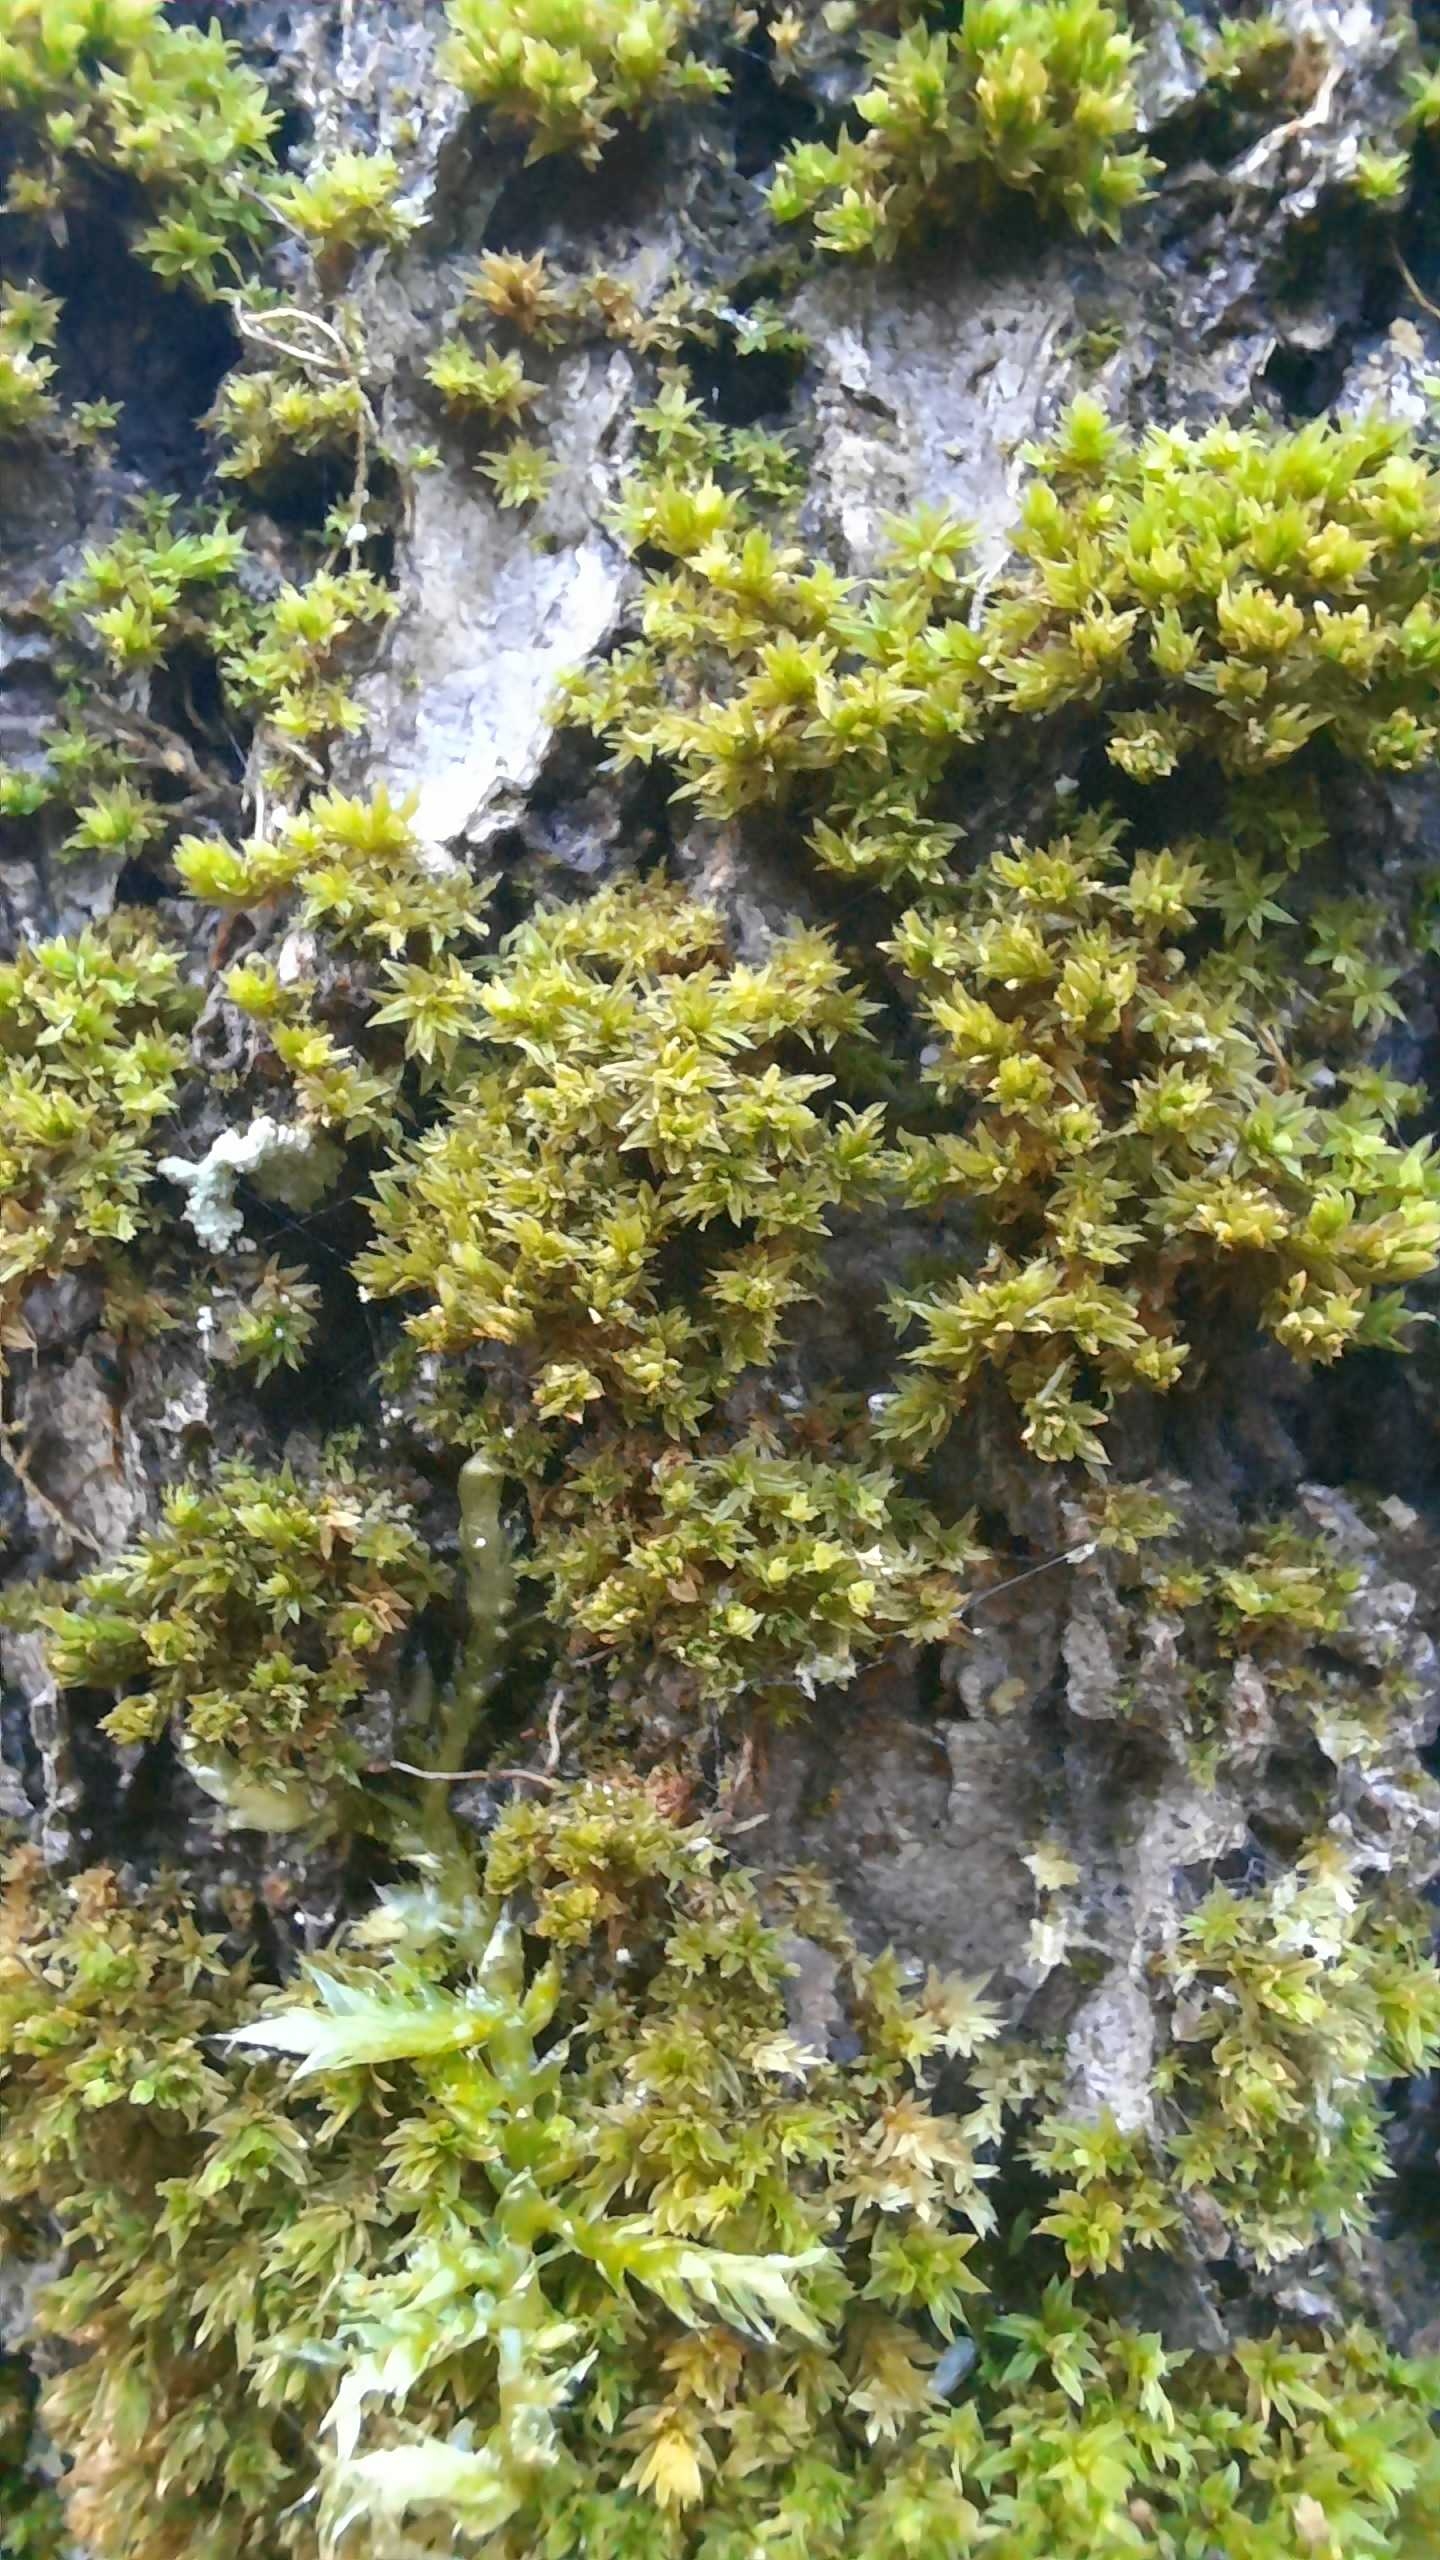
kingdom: Plantae
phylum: Bryophyta
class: Bryopsida
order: Orthotrichales
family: Orthotrichaceae
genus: Zygodon
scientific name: Zygodon
